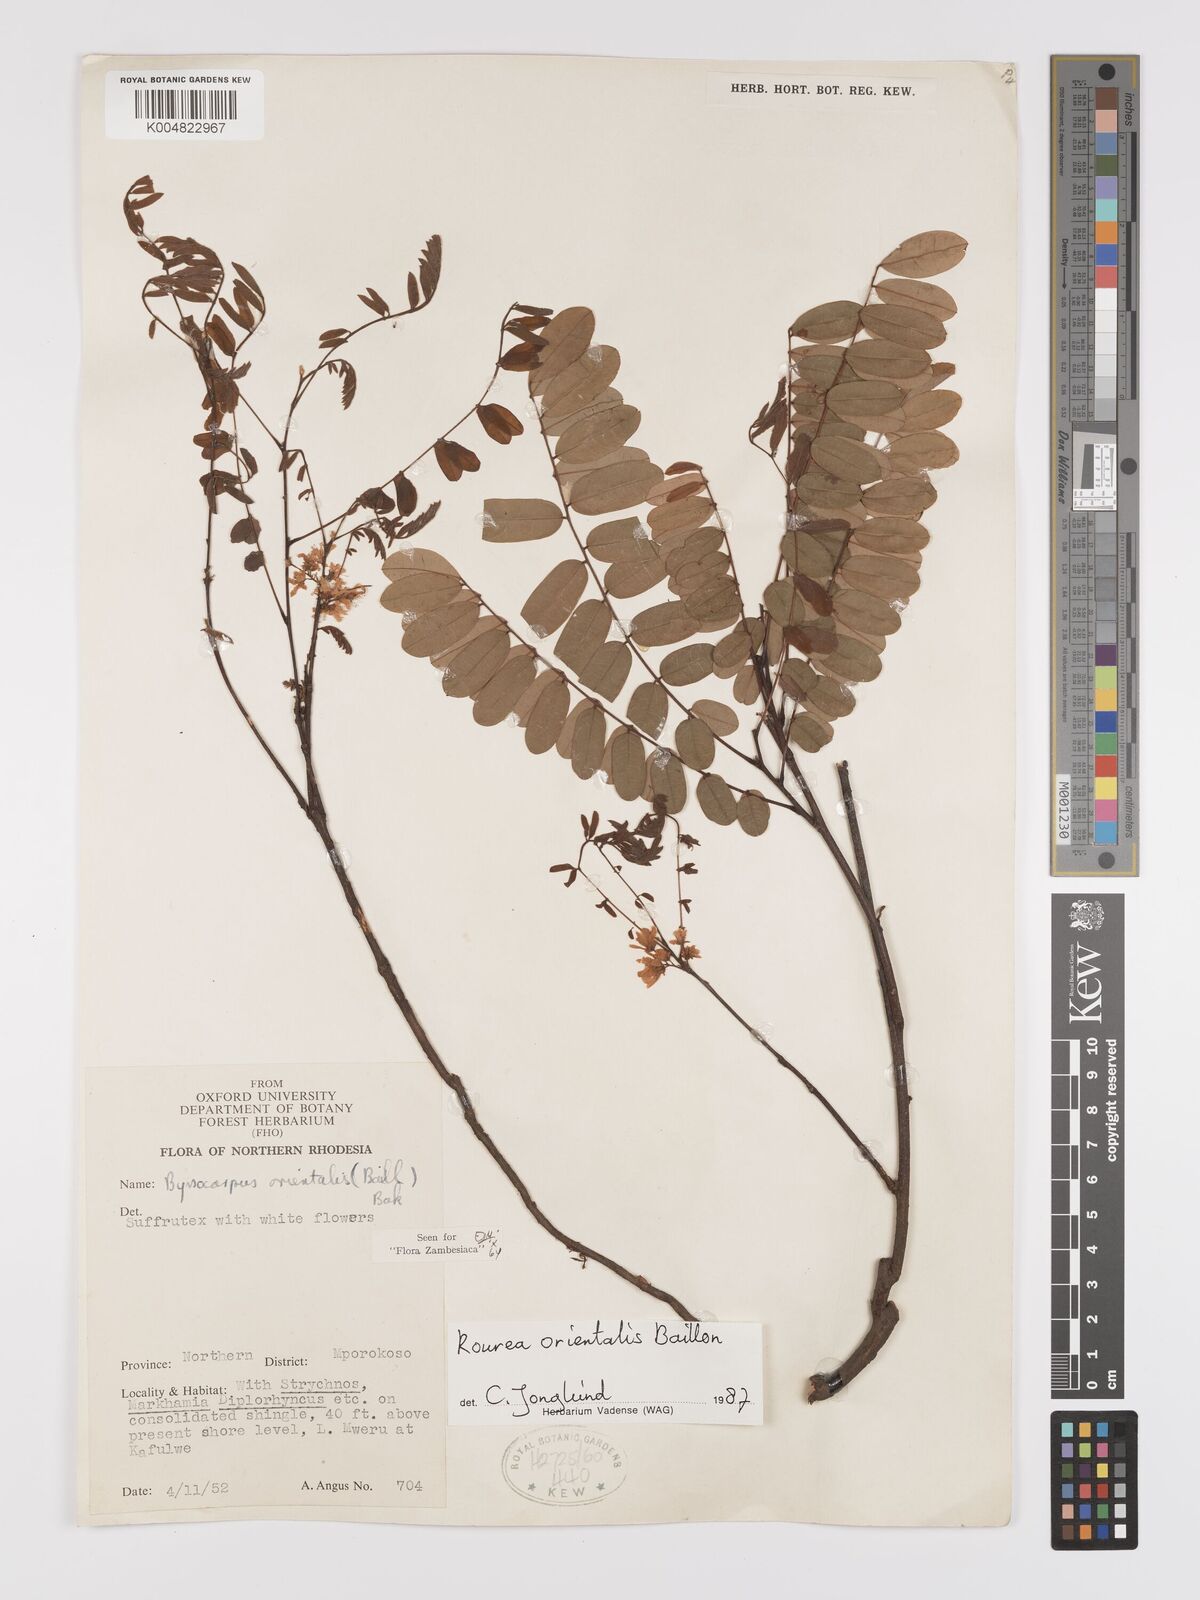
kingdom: Plantae
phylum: Tracheophyta
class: Magnoliopsida
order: Oxalidales
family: Connaraceae
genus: Rourea
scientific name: Rourea orientalis
